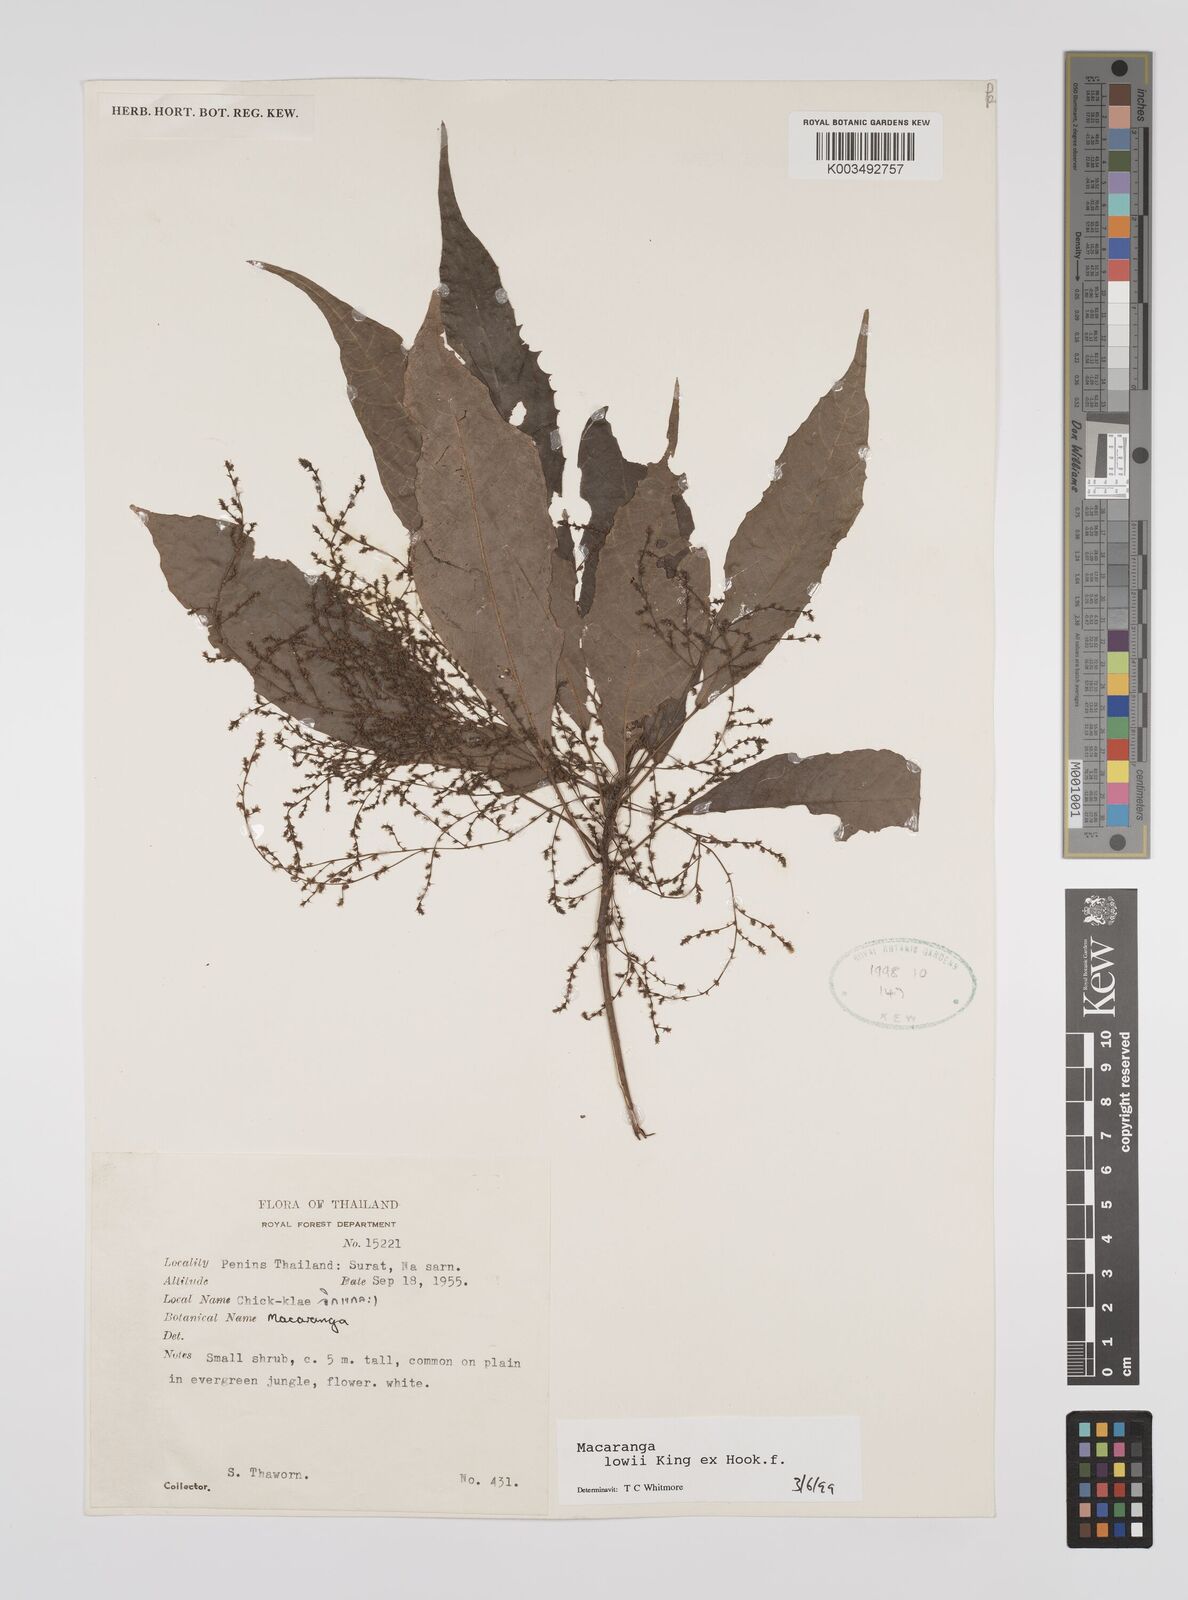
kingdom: Plantae
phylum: Tracheophyta
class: Magnoliopsida
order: Malpighiales
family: Euphorbiaceae
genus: Macaranga
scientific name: Macaranga lowii
